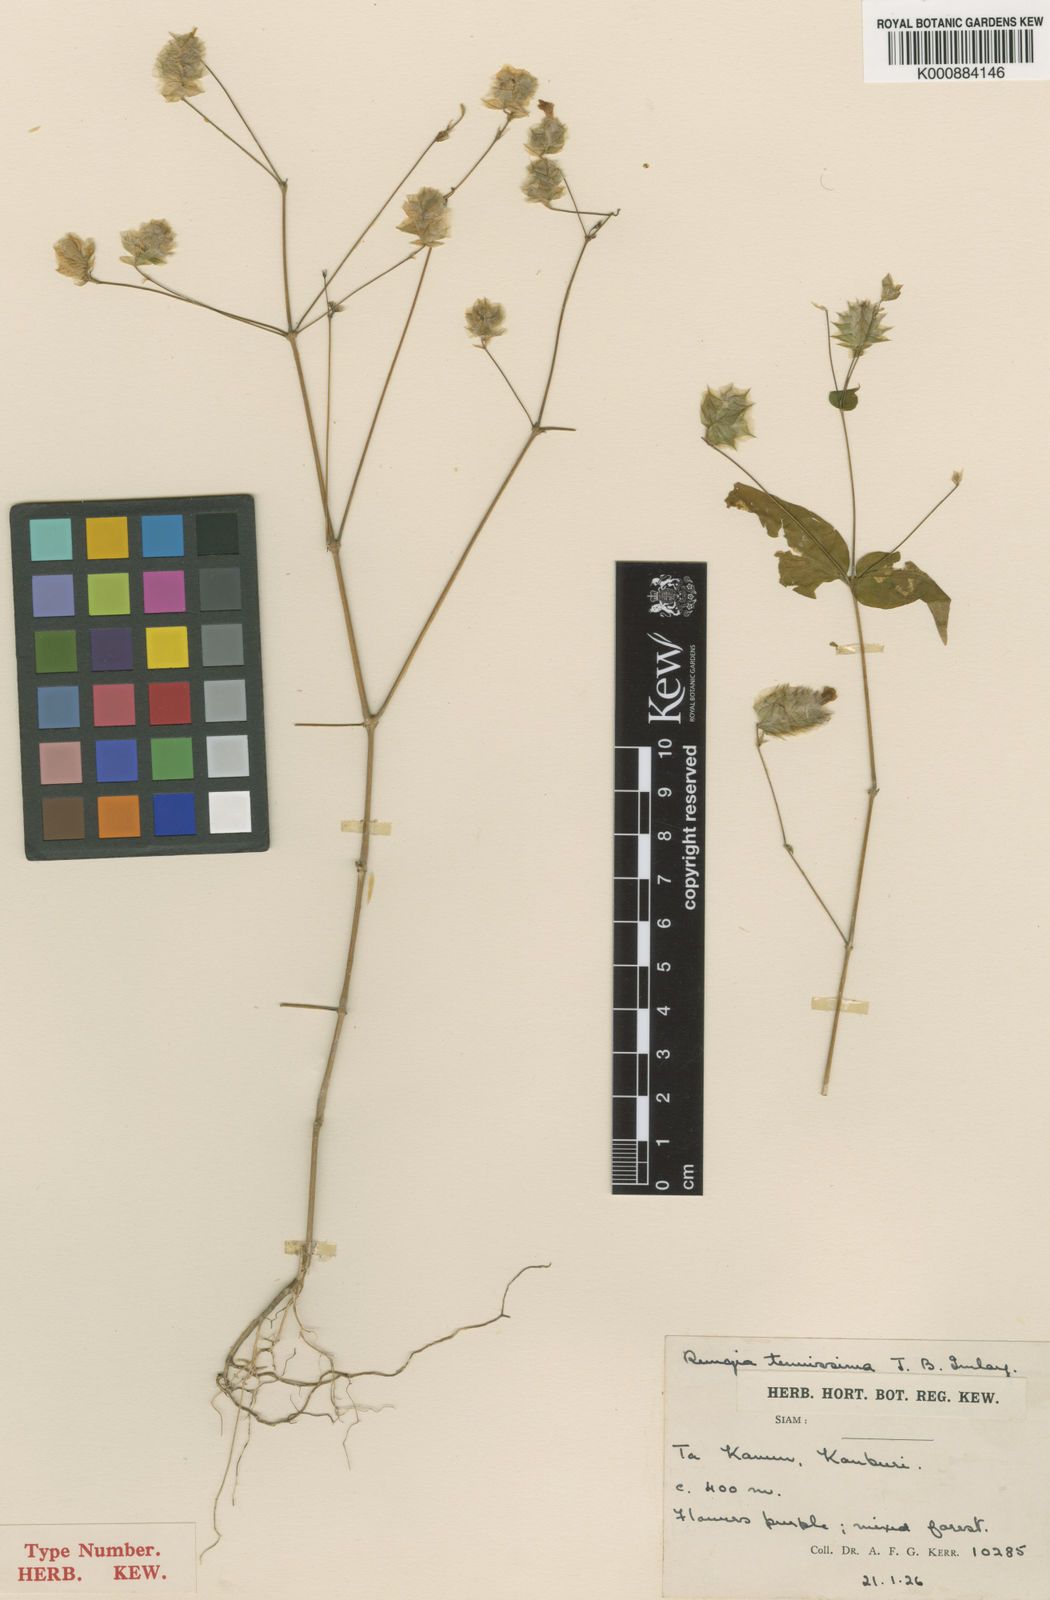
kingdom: Plantae
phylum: Tracheophyta
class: Magnoliopsida
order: Lamiales
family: Acanthaceae
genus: Justicia
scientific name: Justicia beddomei
